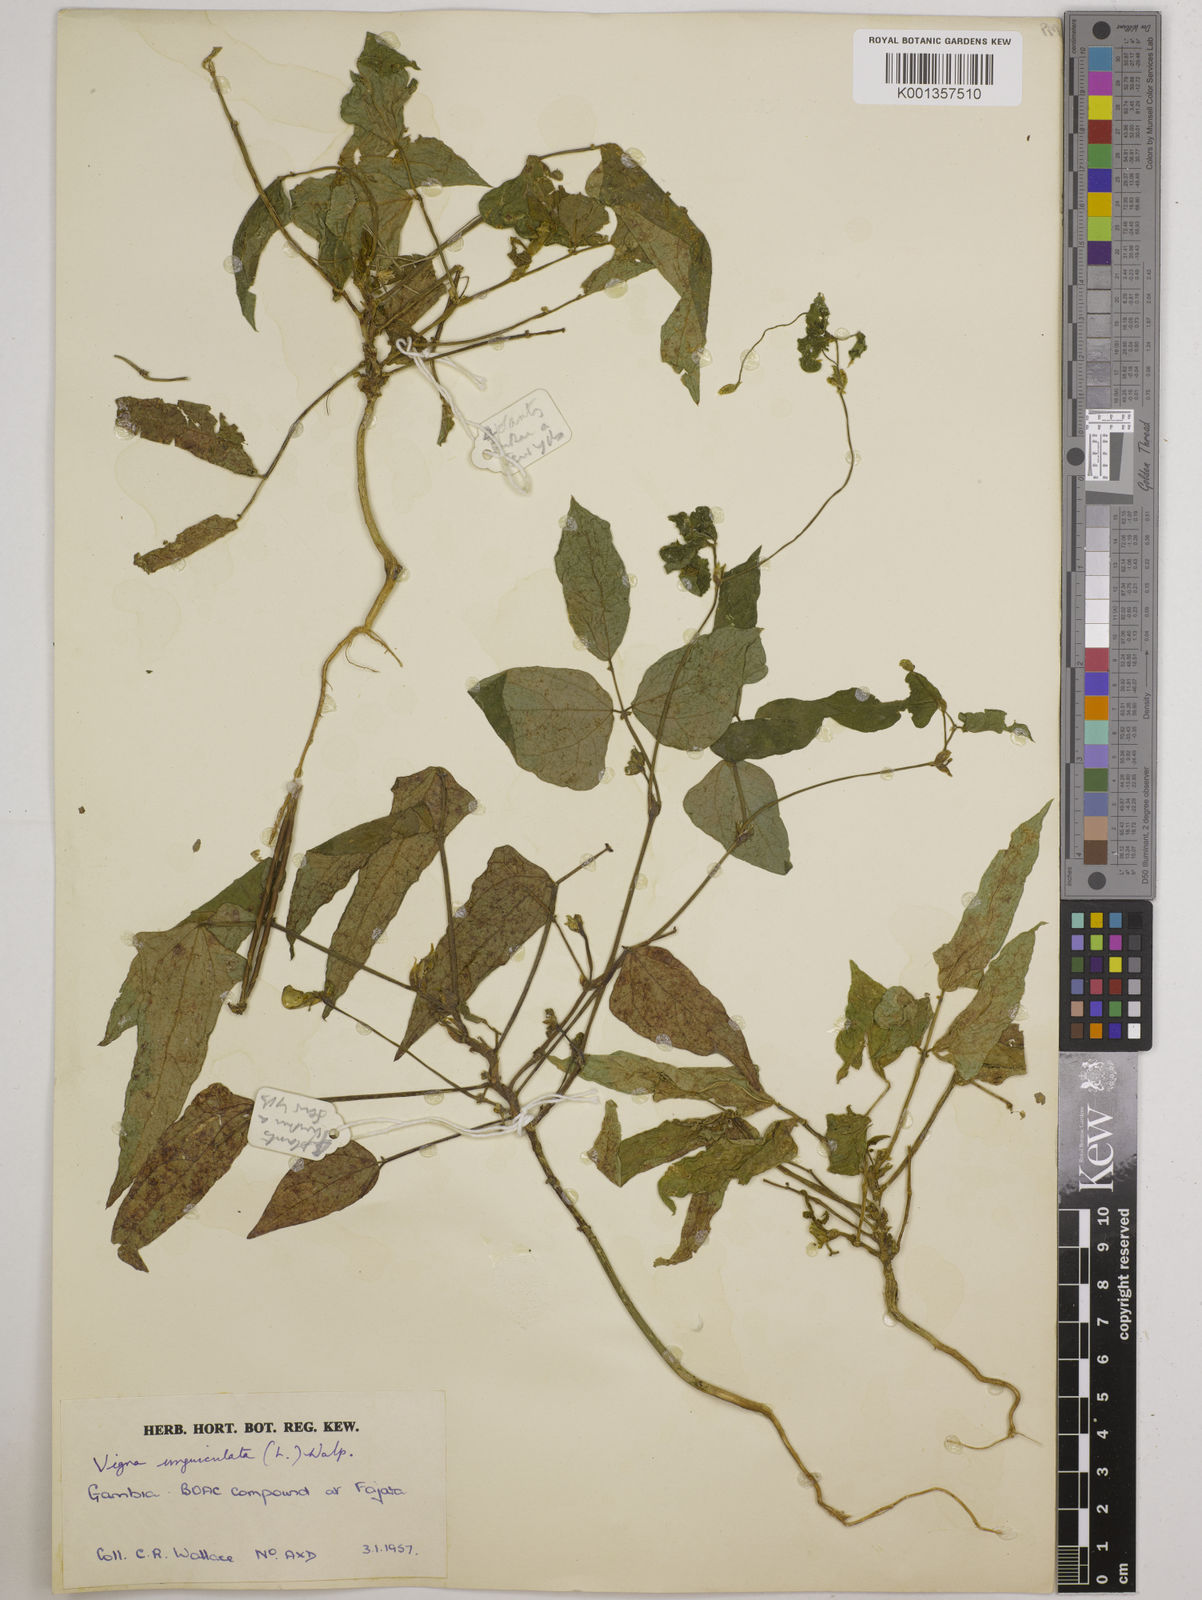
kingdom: Plantae
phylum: Tracheophyta
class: Magnoliopsida
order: Fabales
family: Fabaceae
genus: Vigna
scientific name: Vigna
